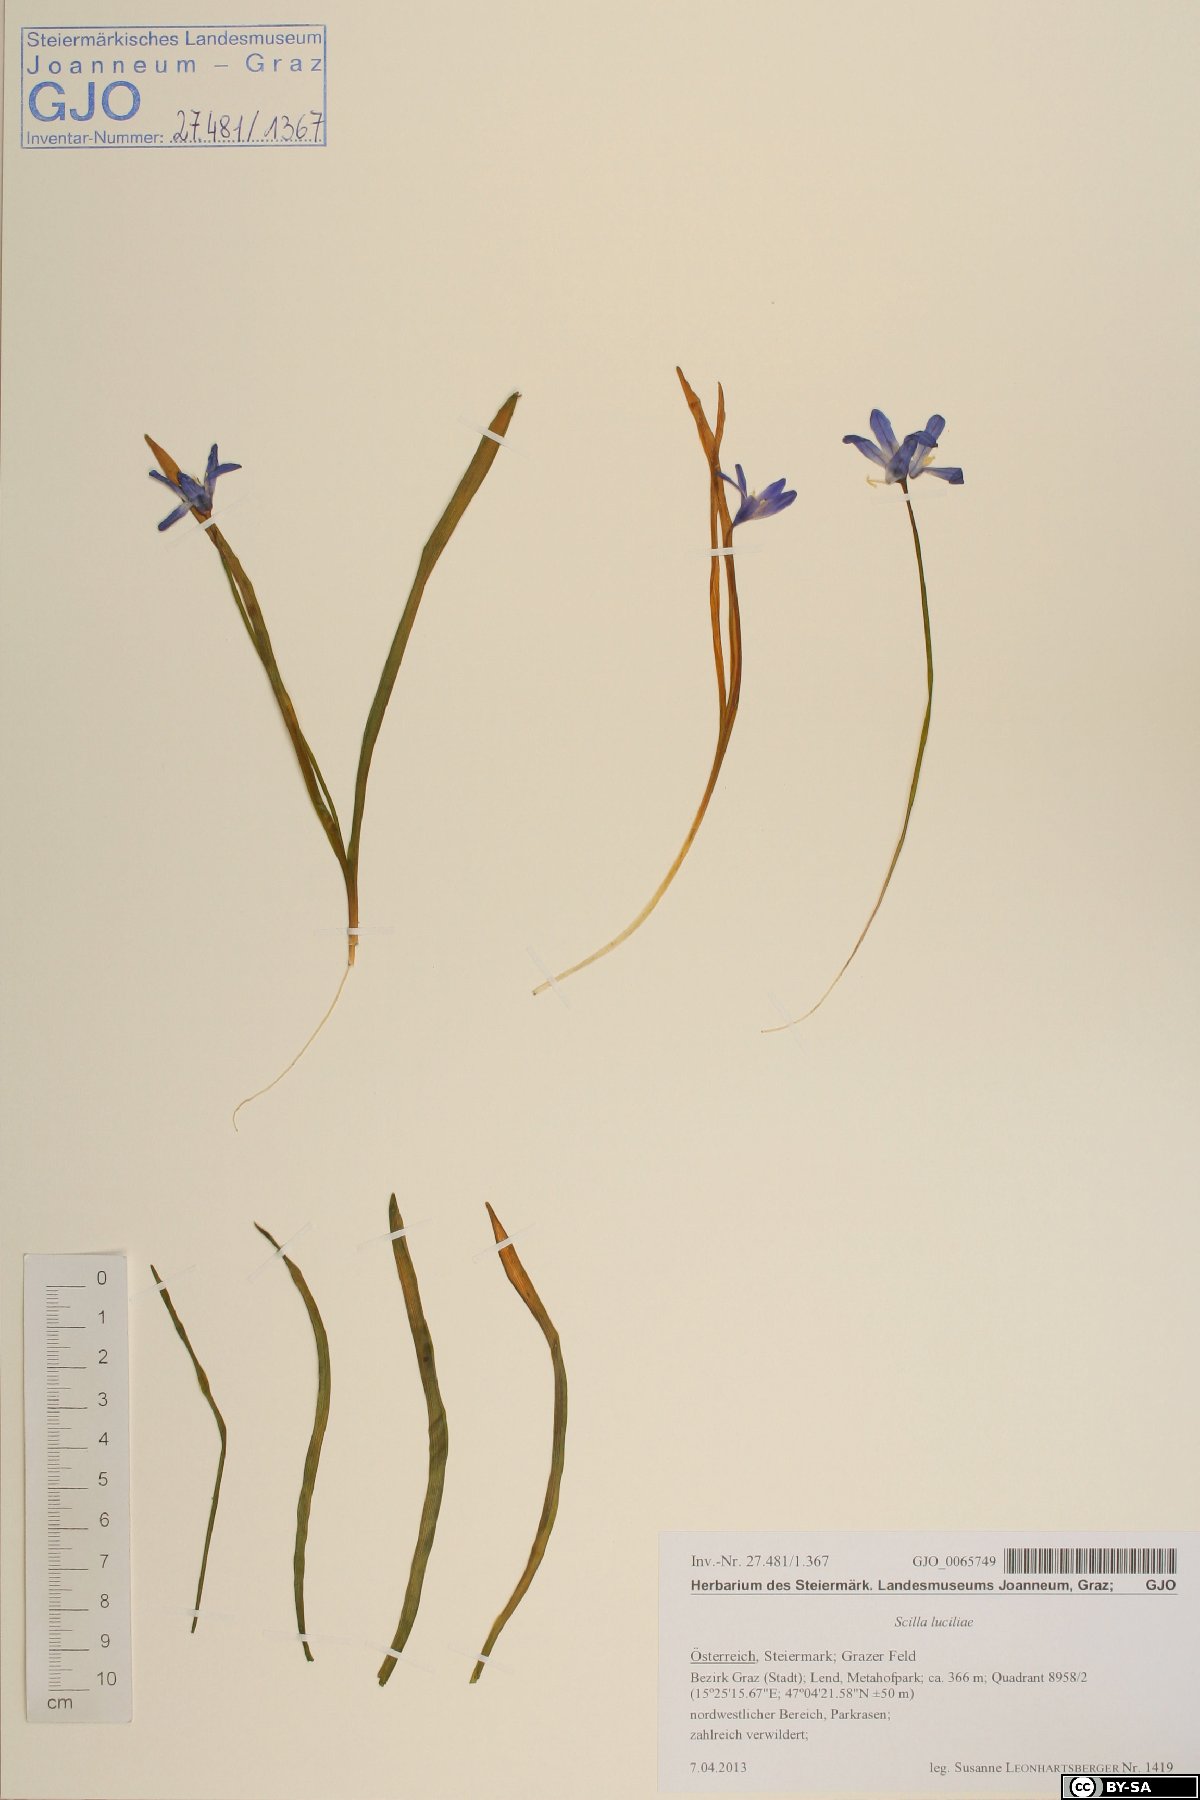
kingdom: Plantae
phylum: Tracheophyta
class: Liliopsida
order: Asparagales
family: Asparagaceae
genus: Scilla
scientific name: Scilla forbesii
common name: Glory-of-the-snow
